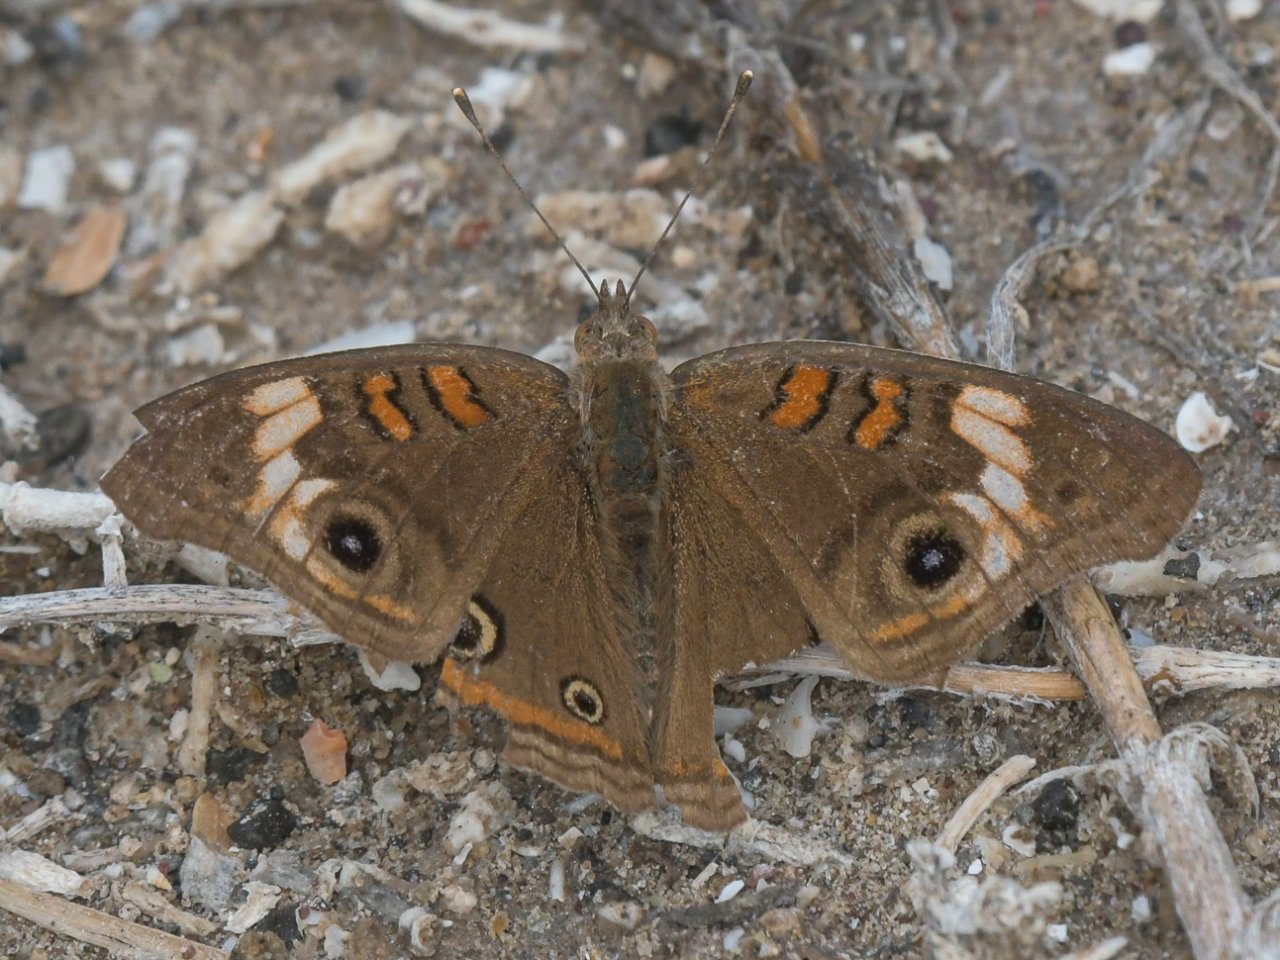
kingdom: Animalia
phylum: Arthropoda
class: Insecta
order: Lepidoptera
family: Nymphalidae
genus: Junonia
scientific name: Junonia
